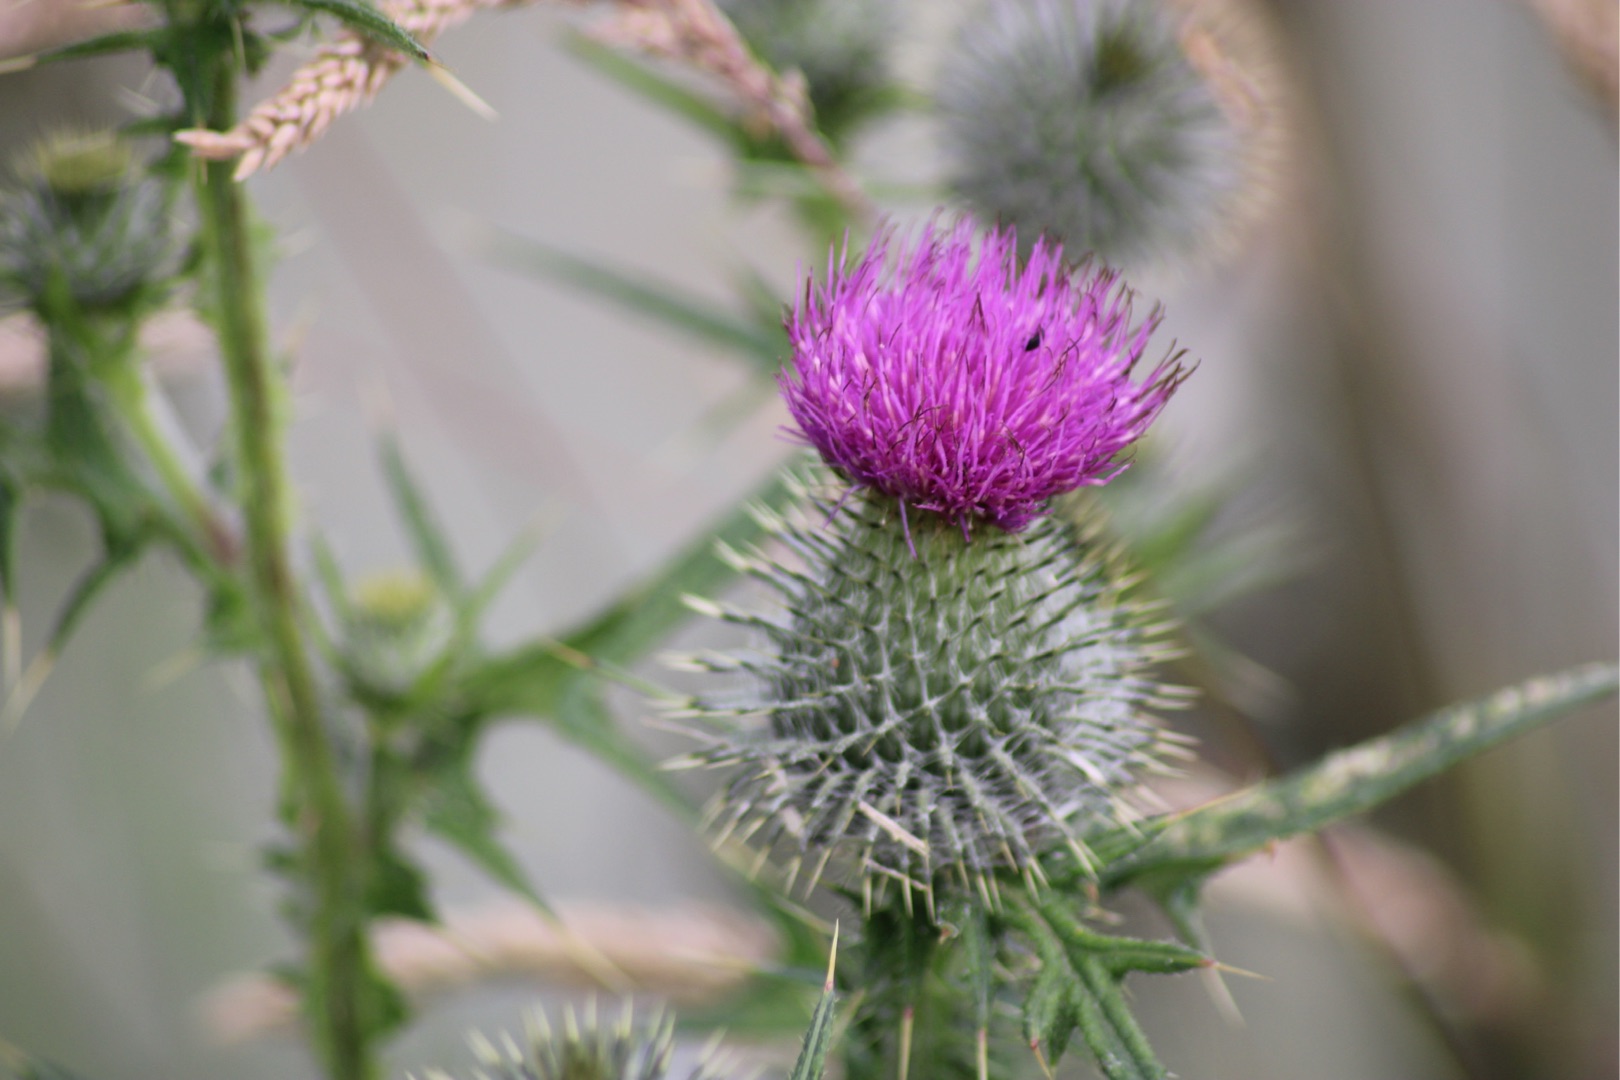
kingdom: Plantae
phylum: Tracheophyta
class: Magnoliopsida
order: Asterales
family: Asteraceae
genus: Cirsium
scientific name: Cirsium vulgare
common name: Horse-tidsel
